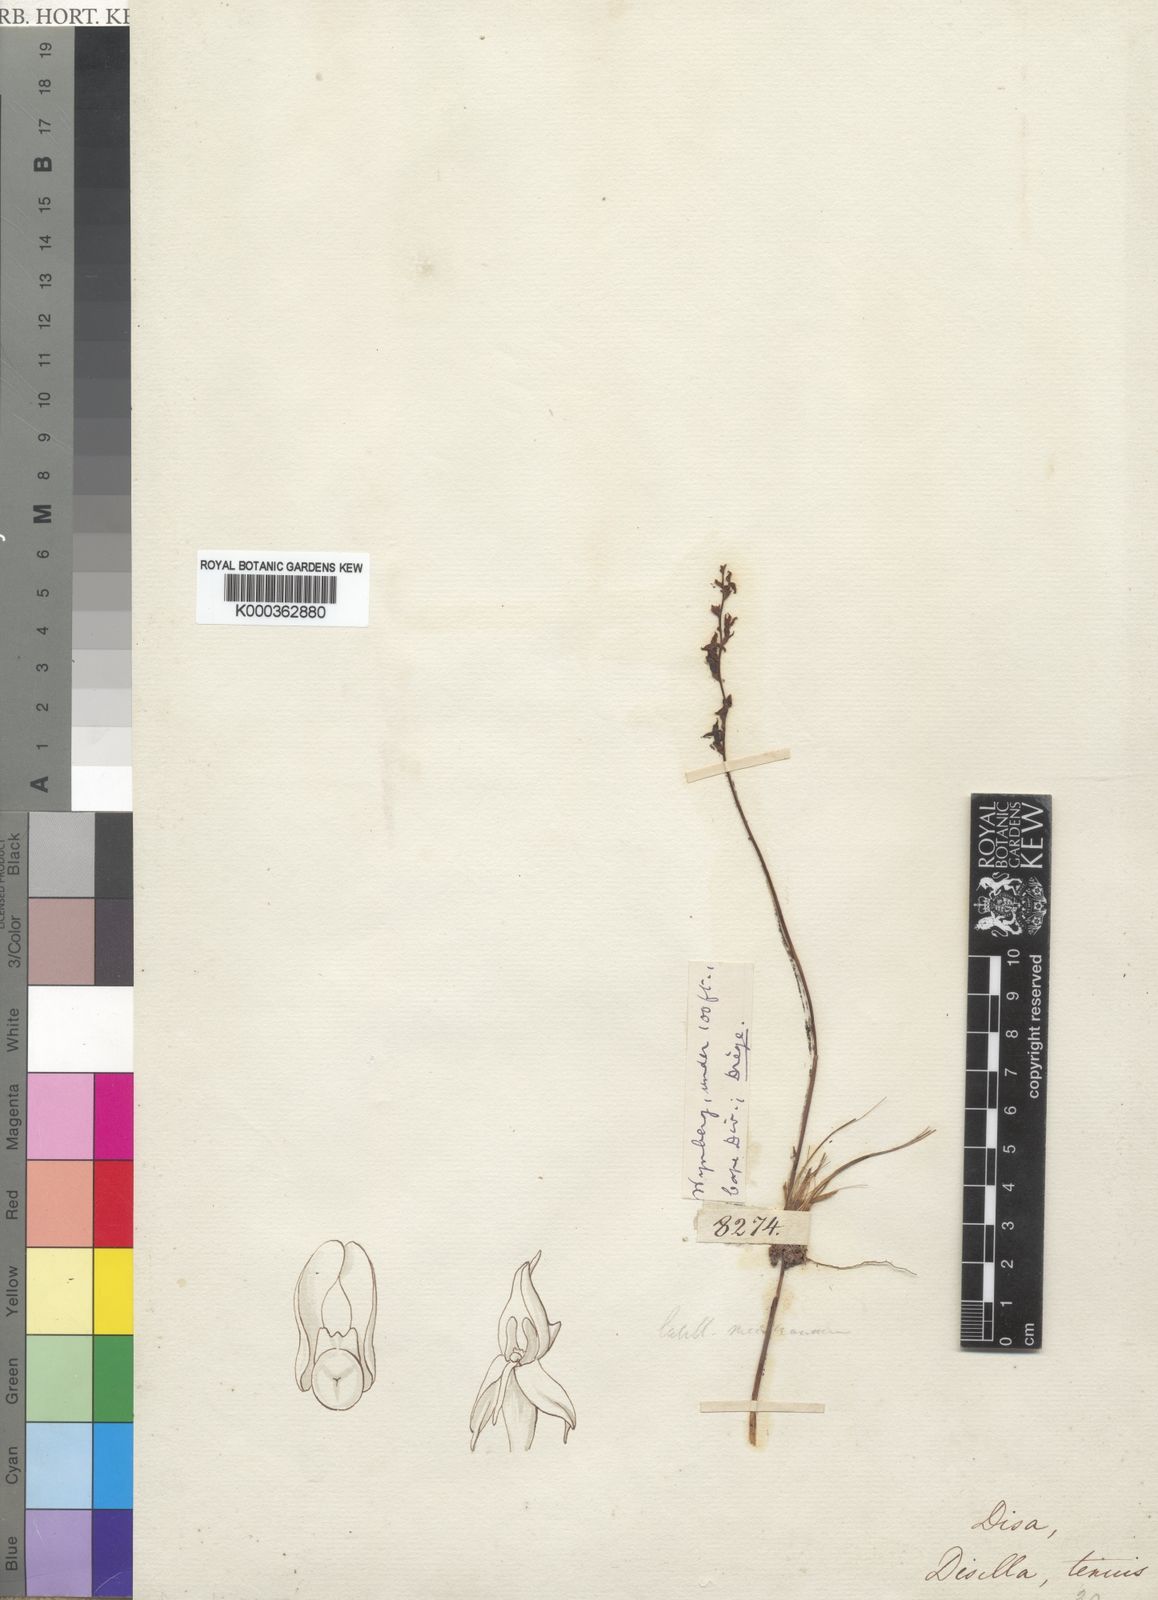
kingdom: Plantae
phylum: Tracheophyta
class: Liliopsida
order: Asparagales
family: Orchidaceae
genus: Disa
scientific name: Disa tenuis
